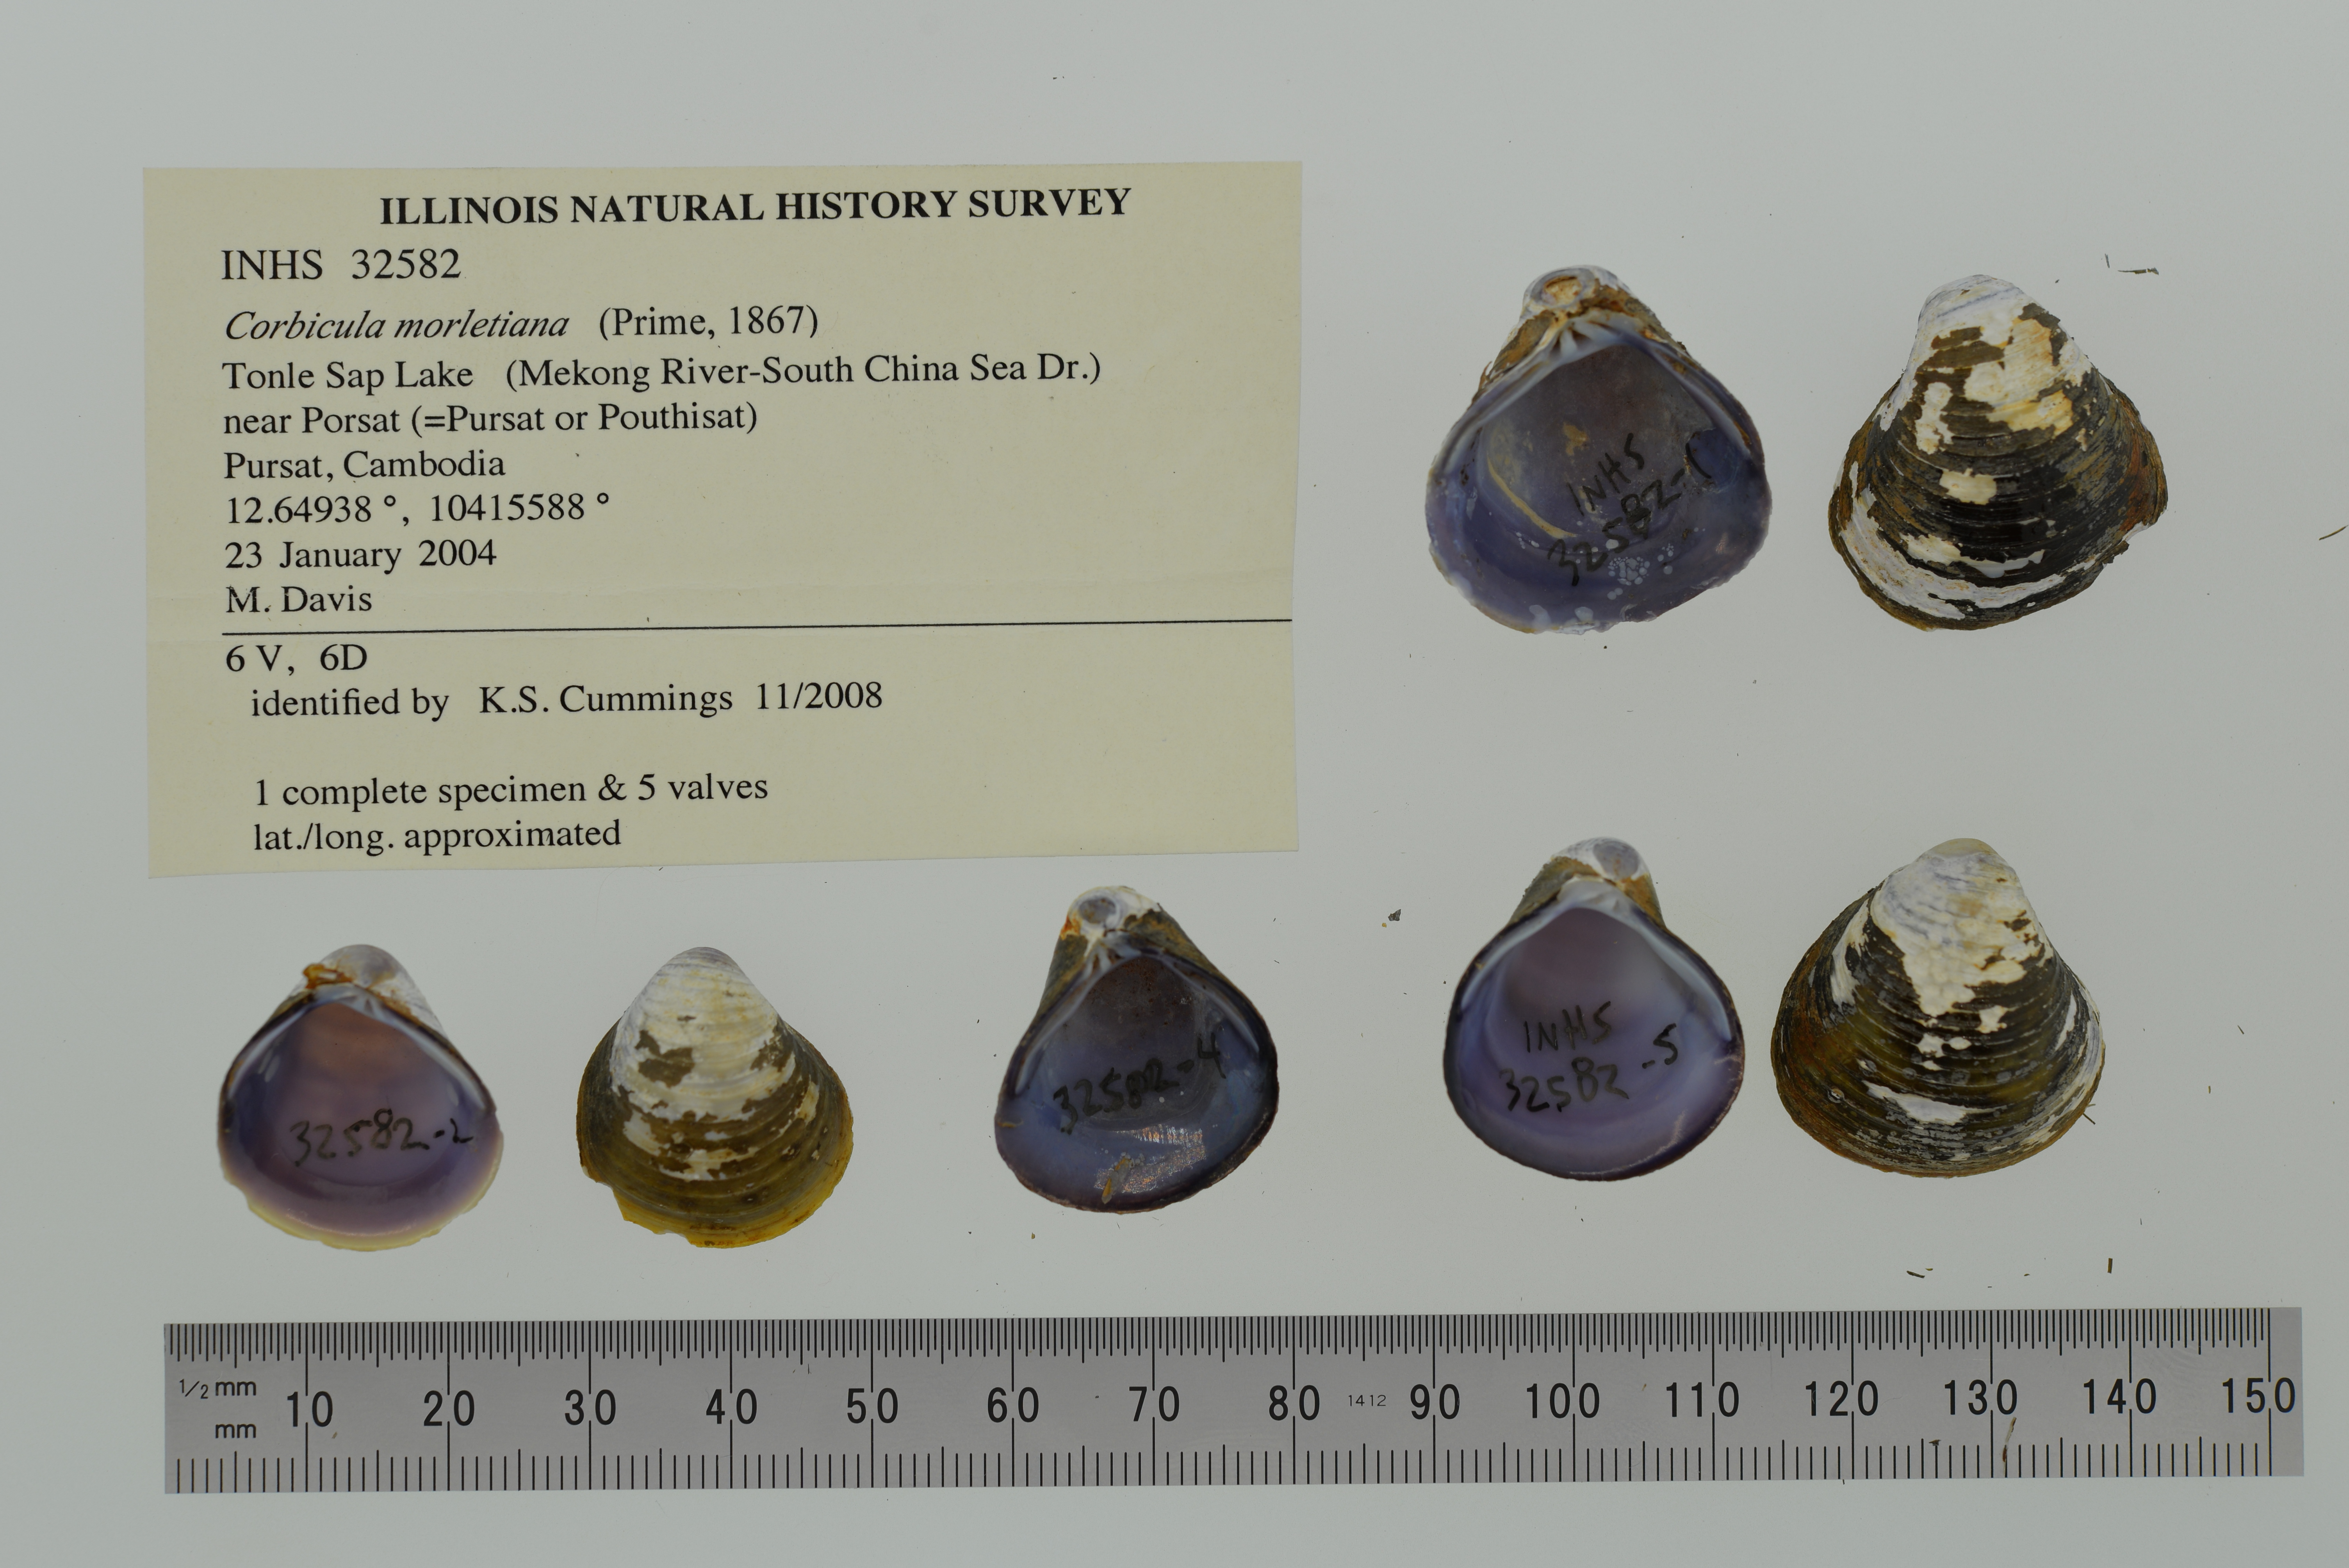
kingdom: Animalia
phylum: Mollusca
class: Bivalvia
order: Venerida
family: Cyrenidae
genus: Corbicula
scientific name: Corbicula moreletiana
